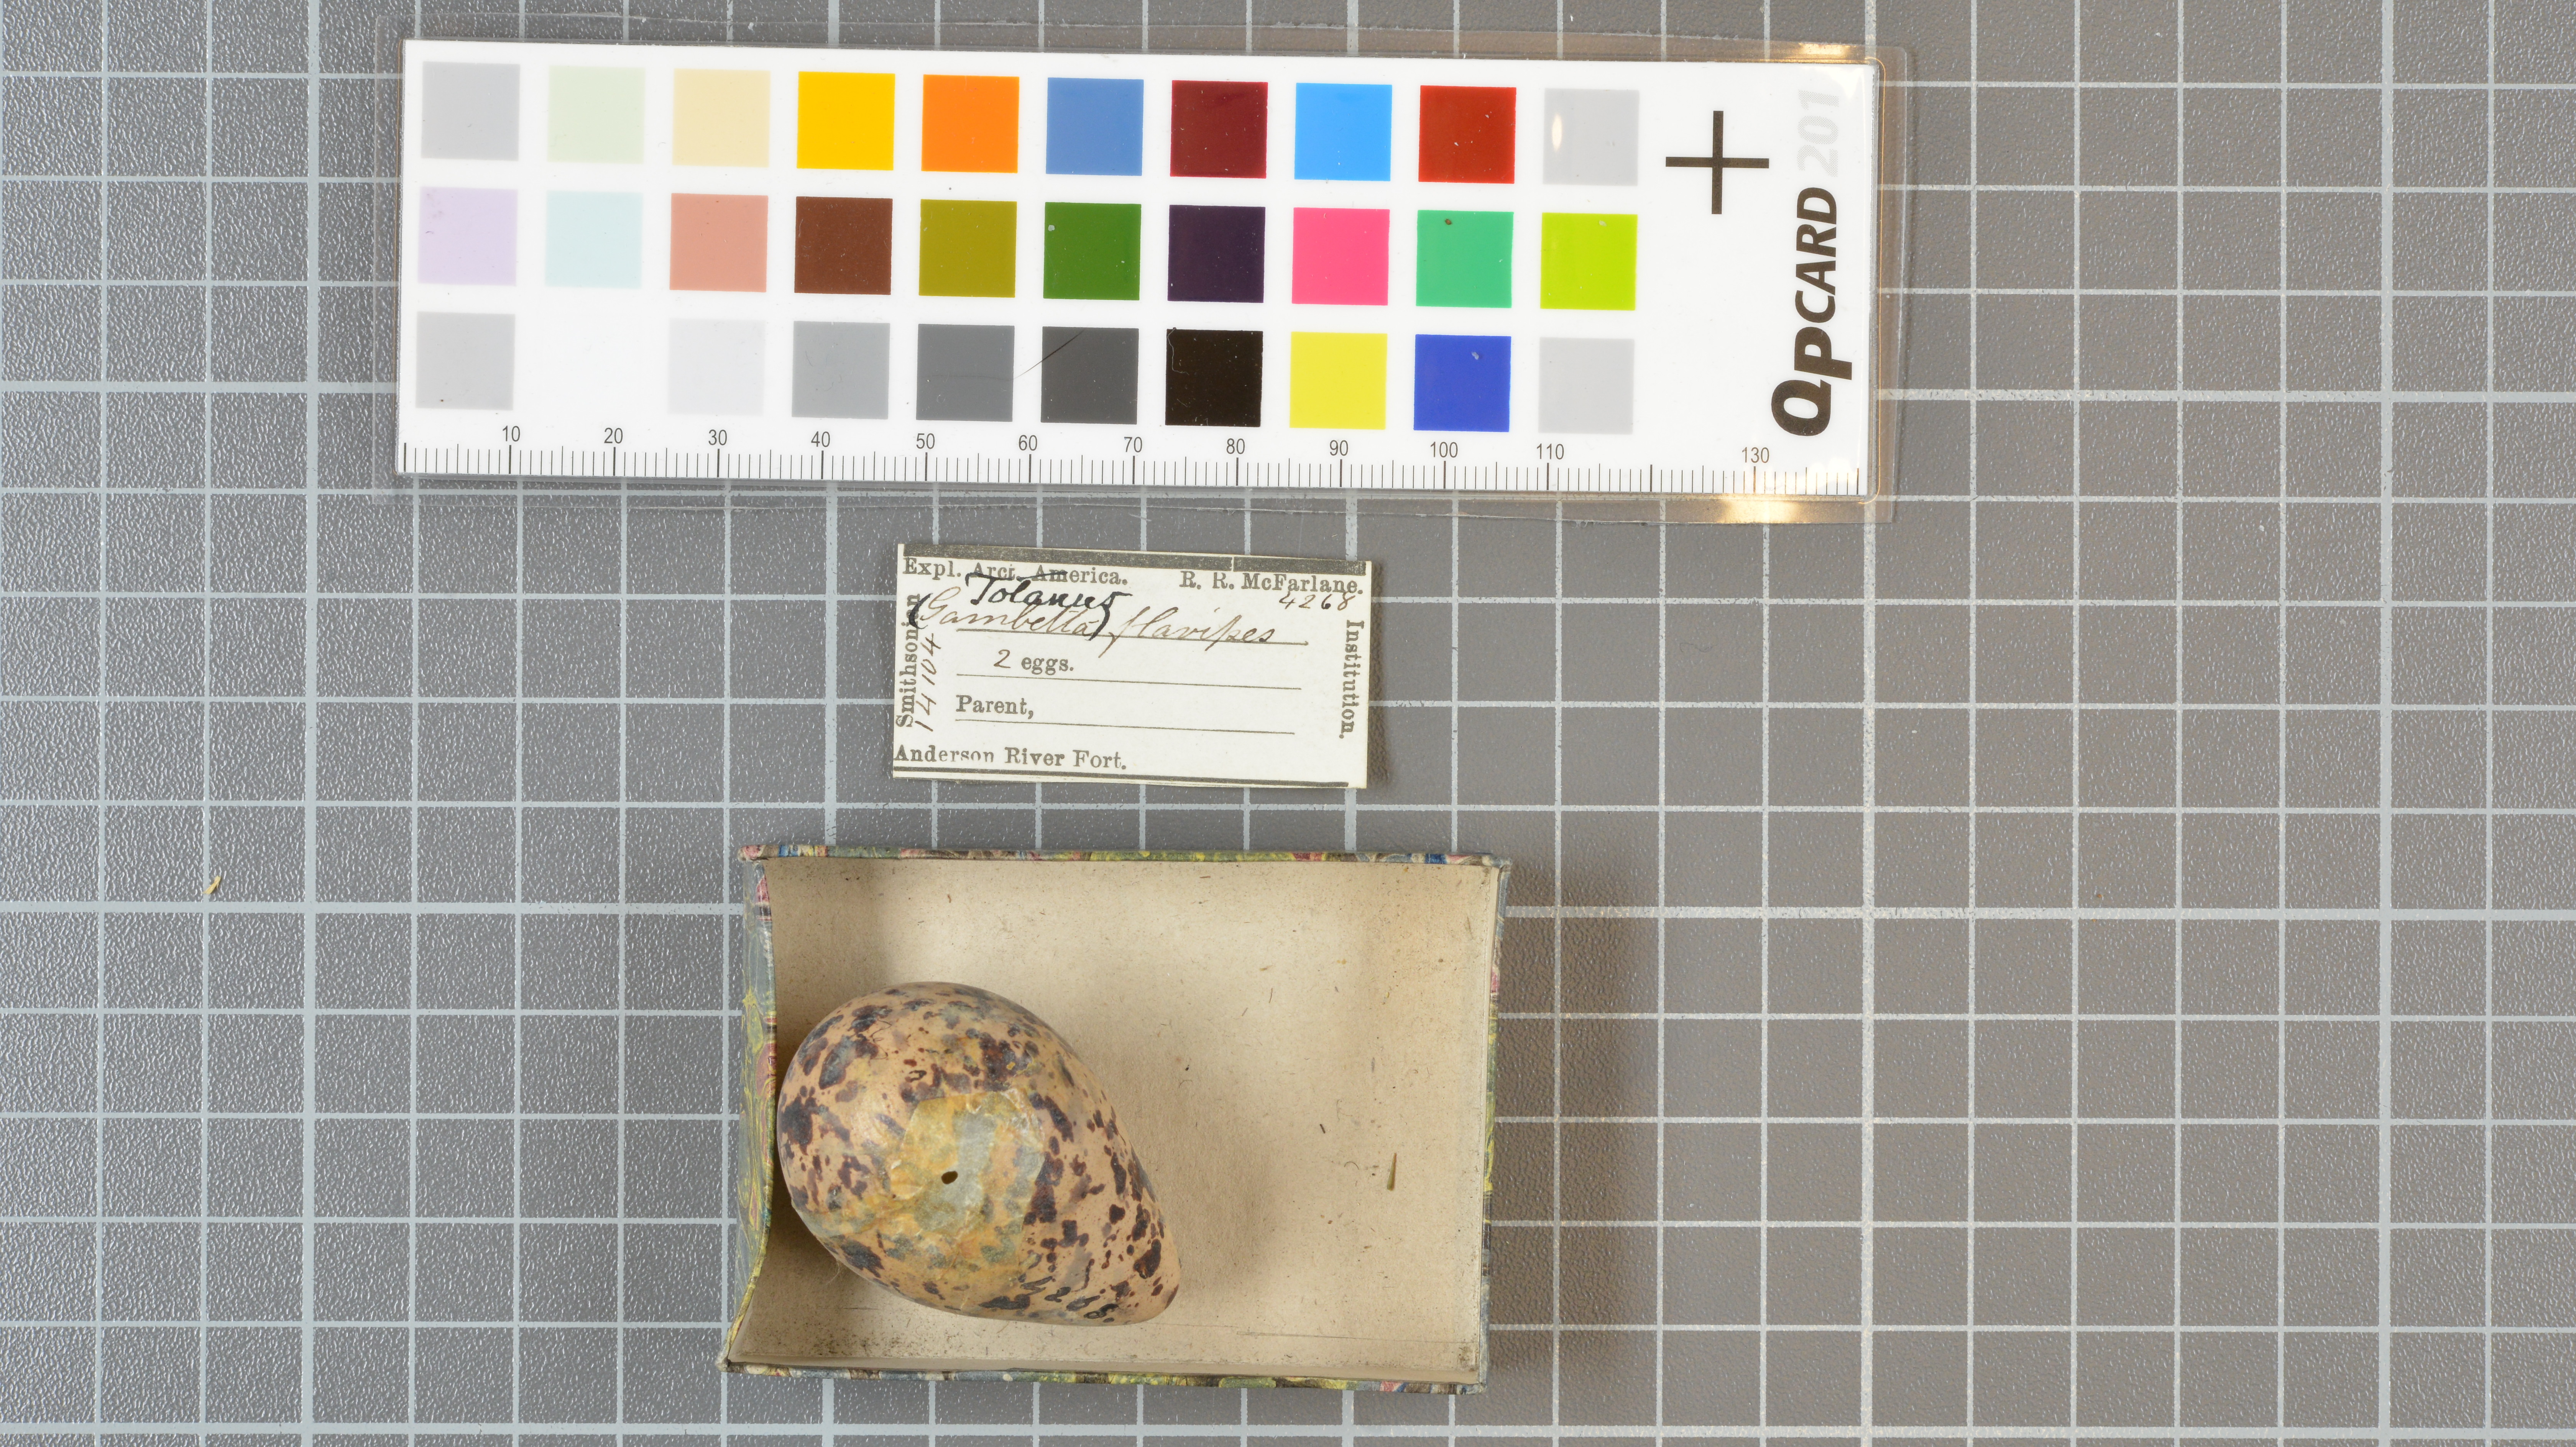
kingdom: Animalia
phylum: Chordata
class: Aves
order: Charadriiformes
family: Scolopacidae
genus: Tringa
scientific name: Tringa flavipes
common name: Lesser yellowlegs
